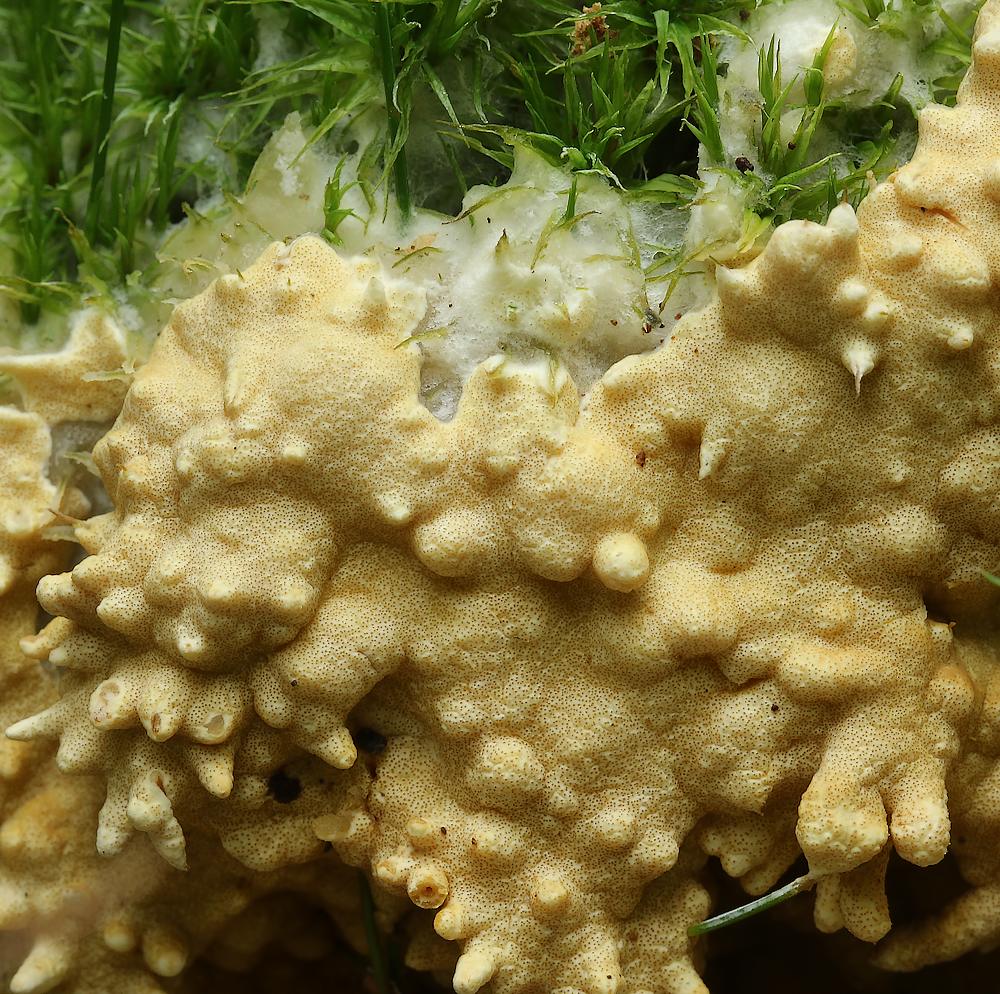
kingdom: Fungi
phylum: Ascomycota
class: Sordariomycetes
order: Hypocreales
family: Hypocreaceae
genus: Trichoderma
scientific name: Trichoderma citrinum
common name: udbredt kødkerne
